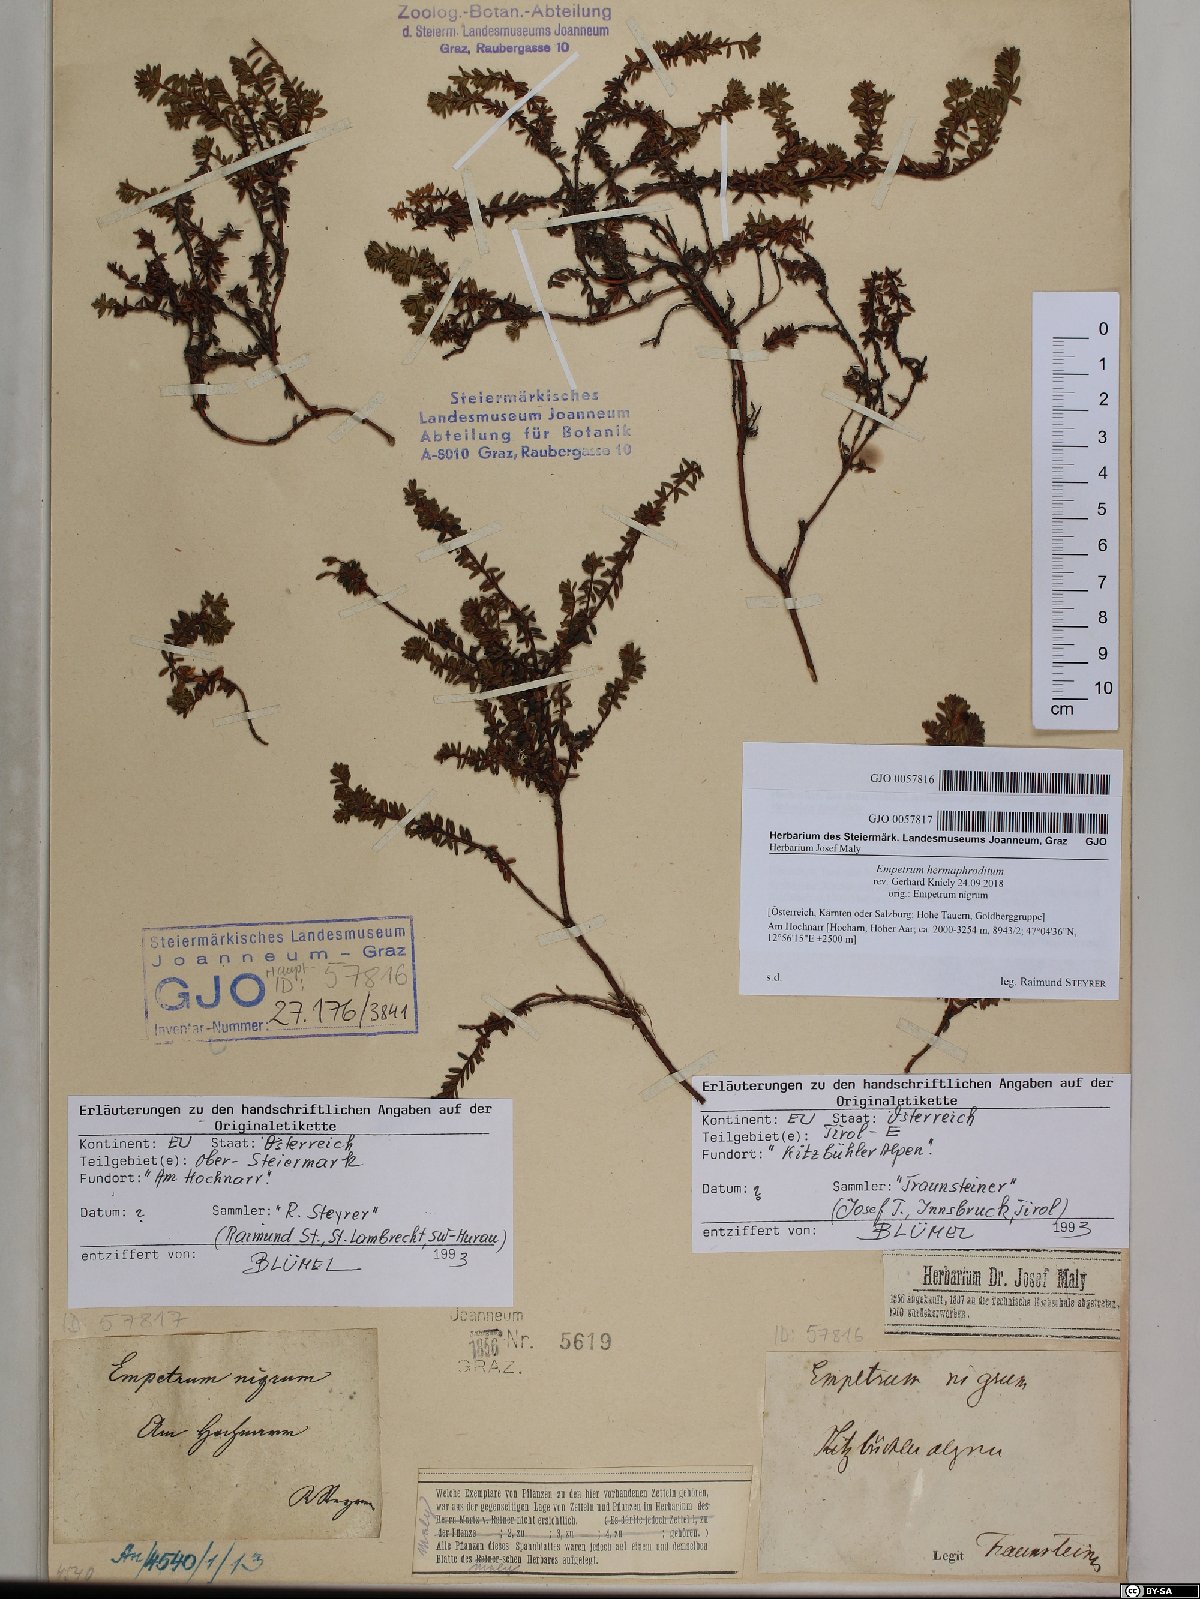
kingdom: Plantae
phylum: Tracheophyta
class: Magnoliopsida
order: Ericales
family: Ericaceae
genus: Empetrum
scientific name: Empetrum hermaphroditum
